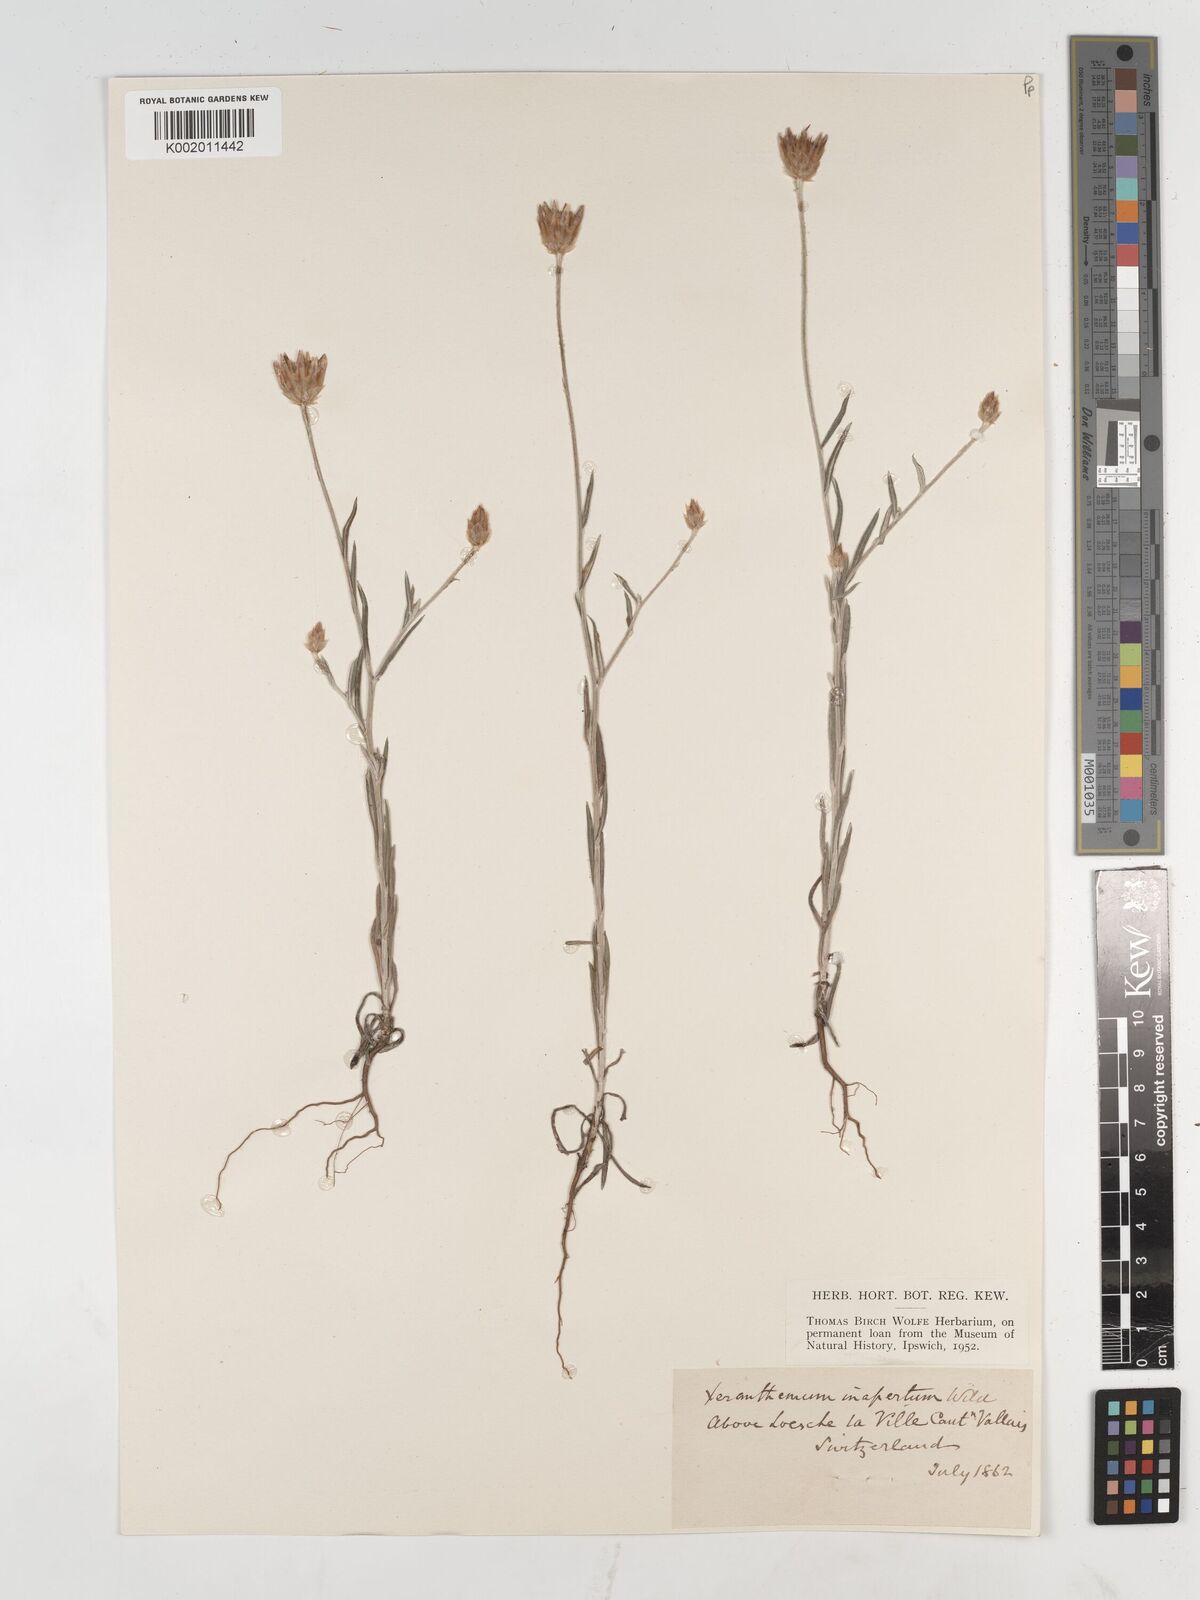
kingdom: Plantae
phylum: Tracheophyta
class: Magnoliopsida
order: Asterales
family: Asteraceae
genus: Xeranthemum
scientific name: Xeranthemum
